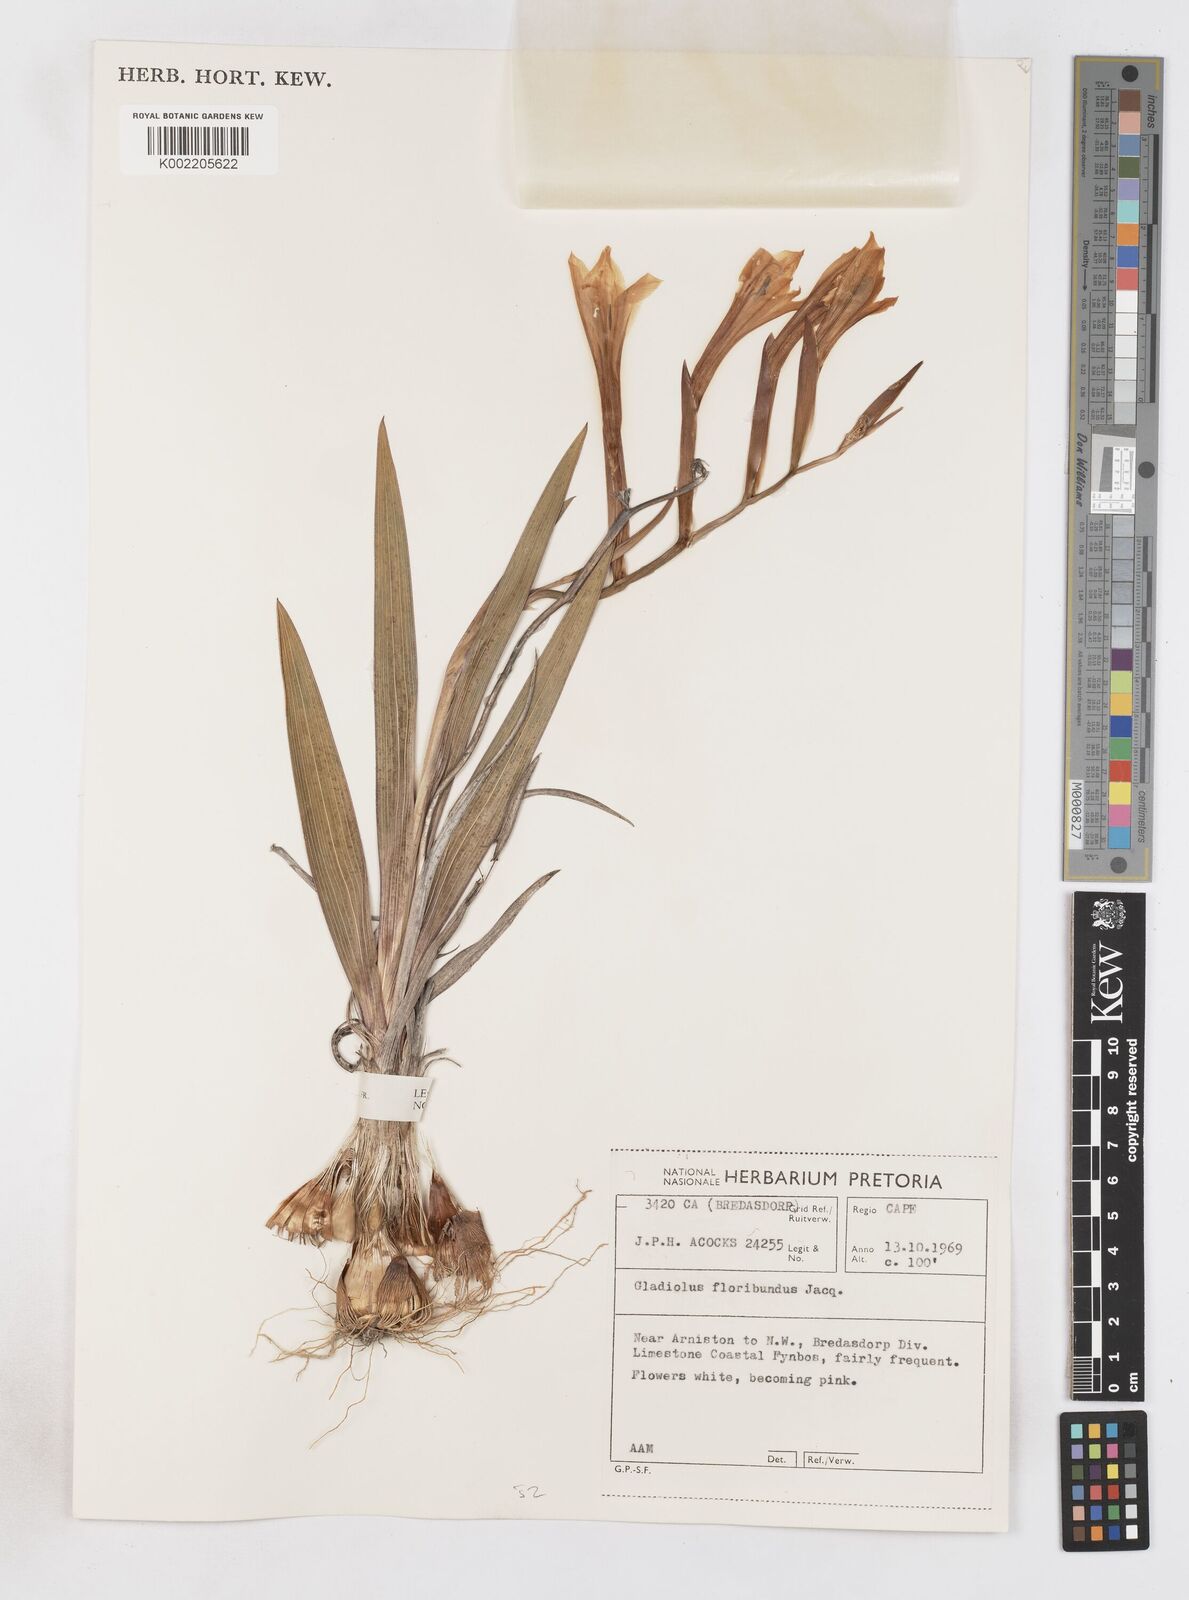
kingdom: Plantae
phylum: Tracheophyta
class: Liliopsida
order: Asparagales
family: Iridaceae
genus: Gladiolus
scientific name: Gladiolus miniatus
